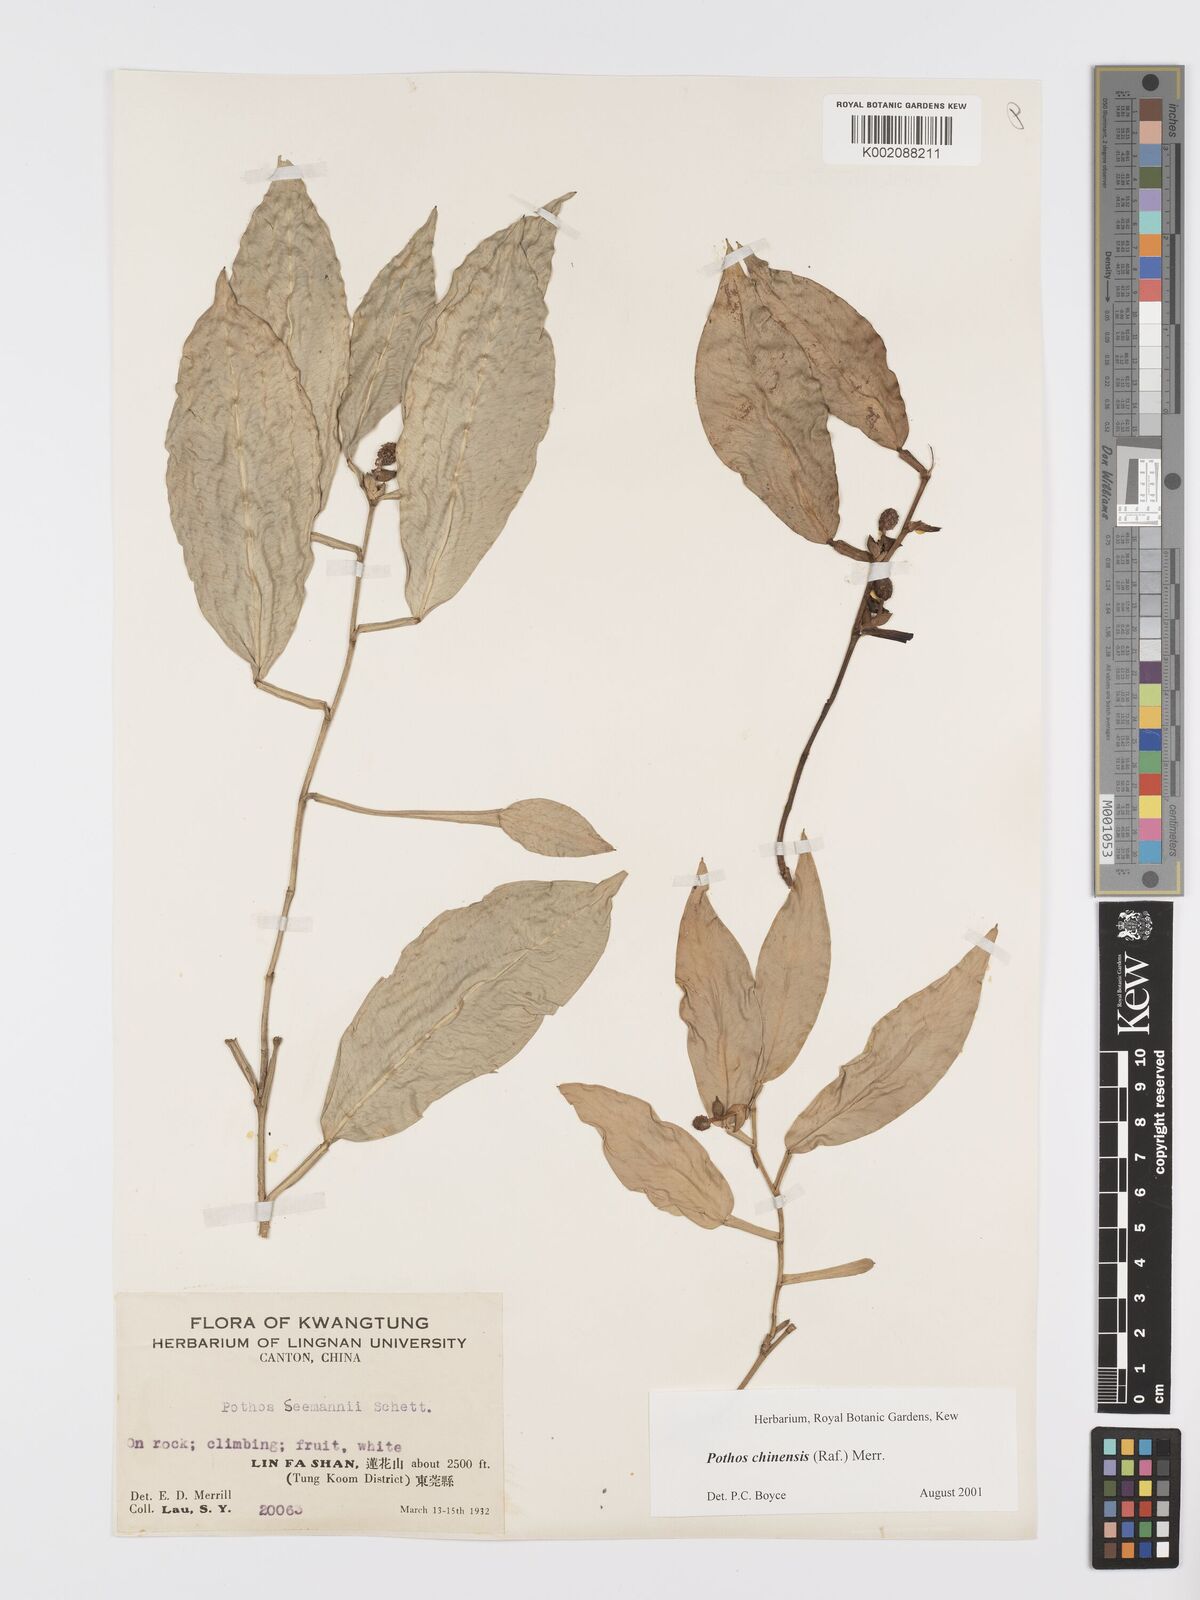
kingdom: Plantae
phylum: Tracheophyta
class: Liliopsida
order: Alismatales
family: Araceae
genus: Pothos
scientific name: Pothos chinensis
